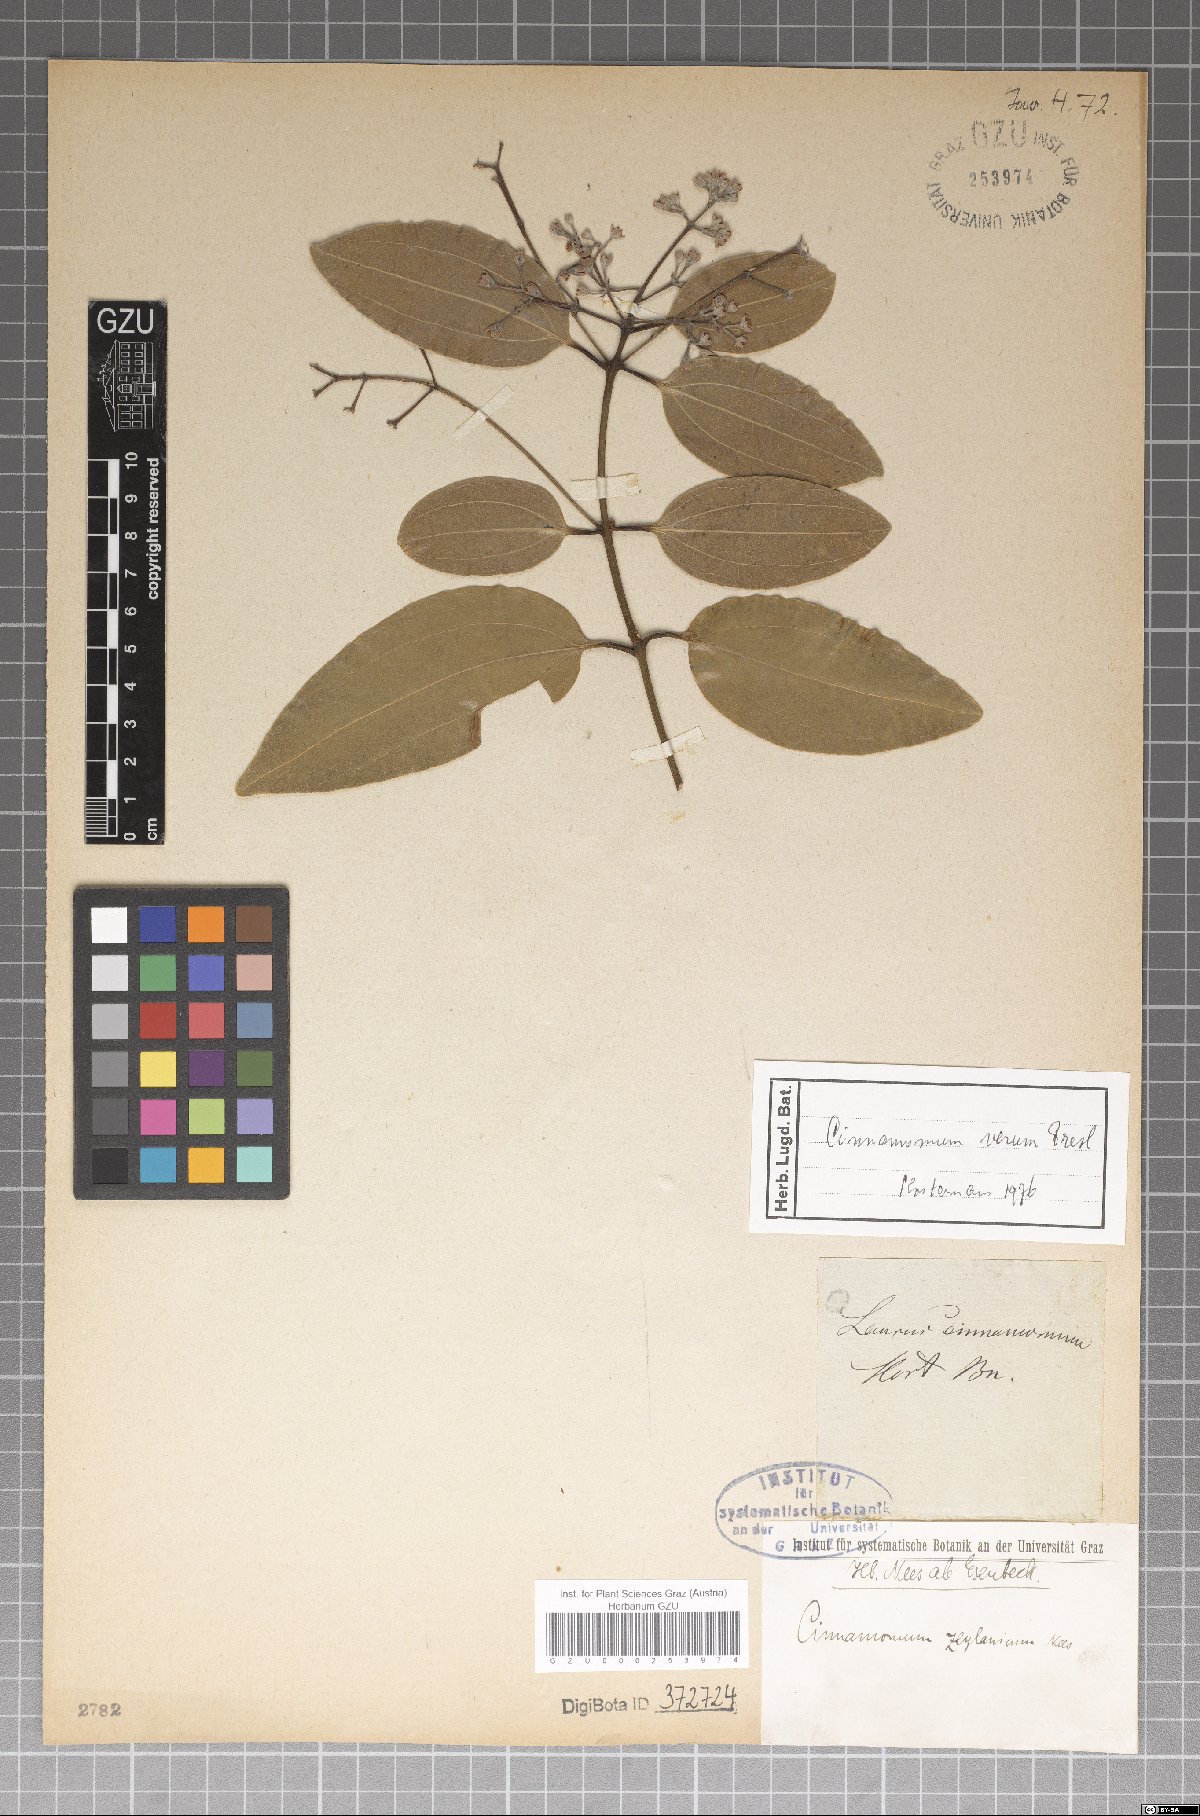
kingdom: Plantae
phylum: Tracheophyta
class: Magnoliopsida
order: Laurales
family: Lauraceae
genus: Cinnamomum
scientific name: Cinnamomum verum
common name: Cinnamon
